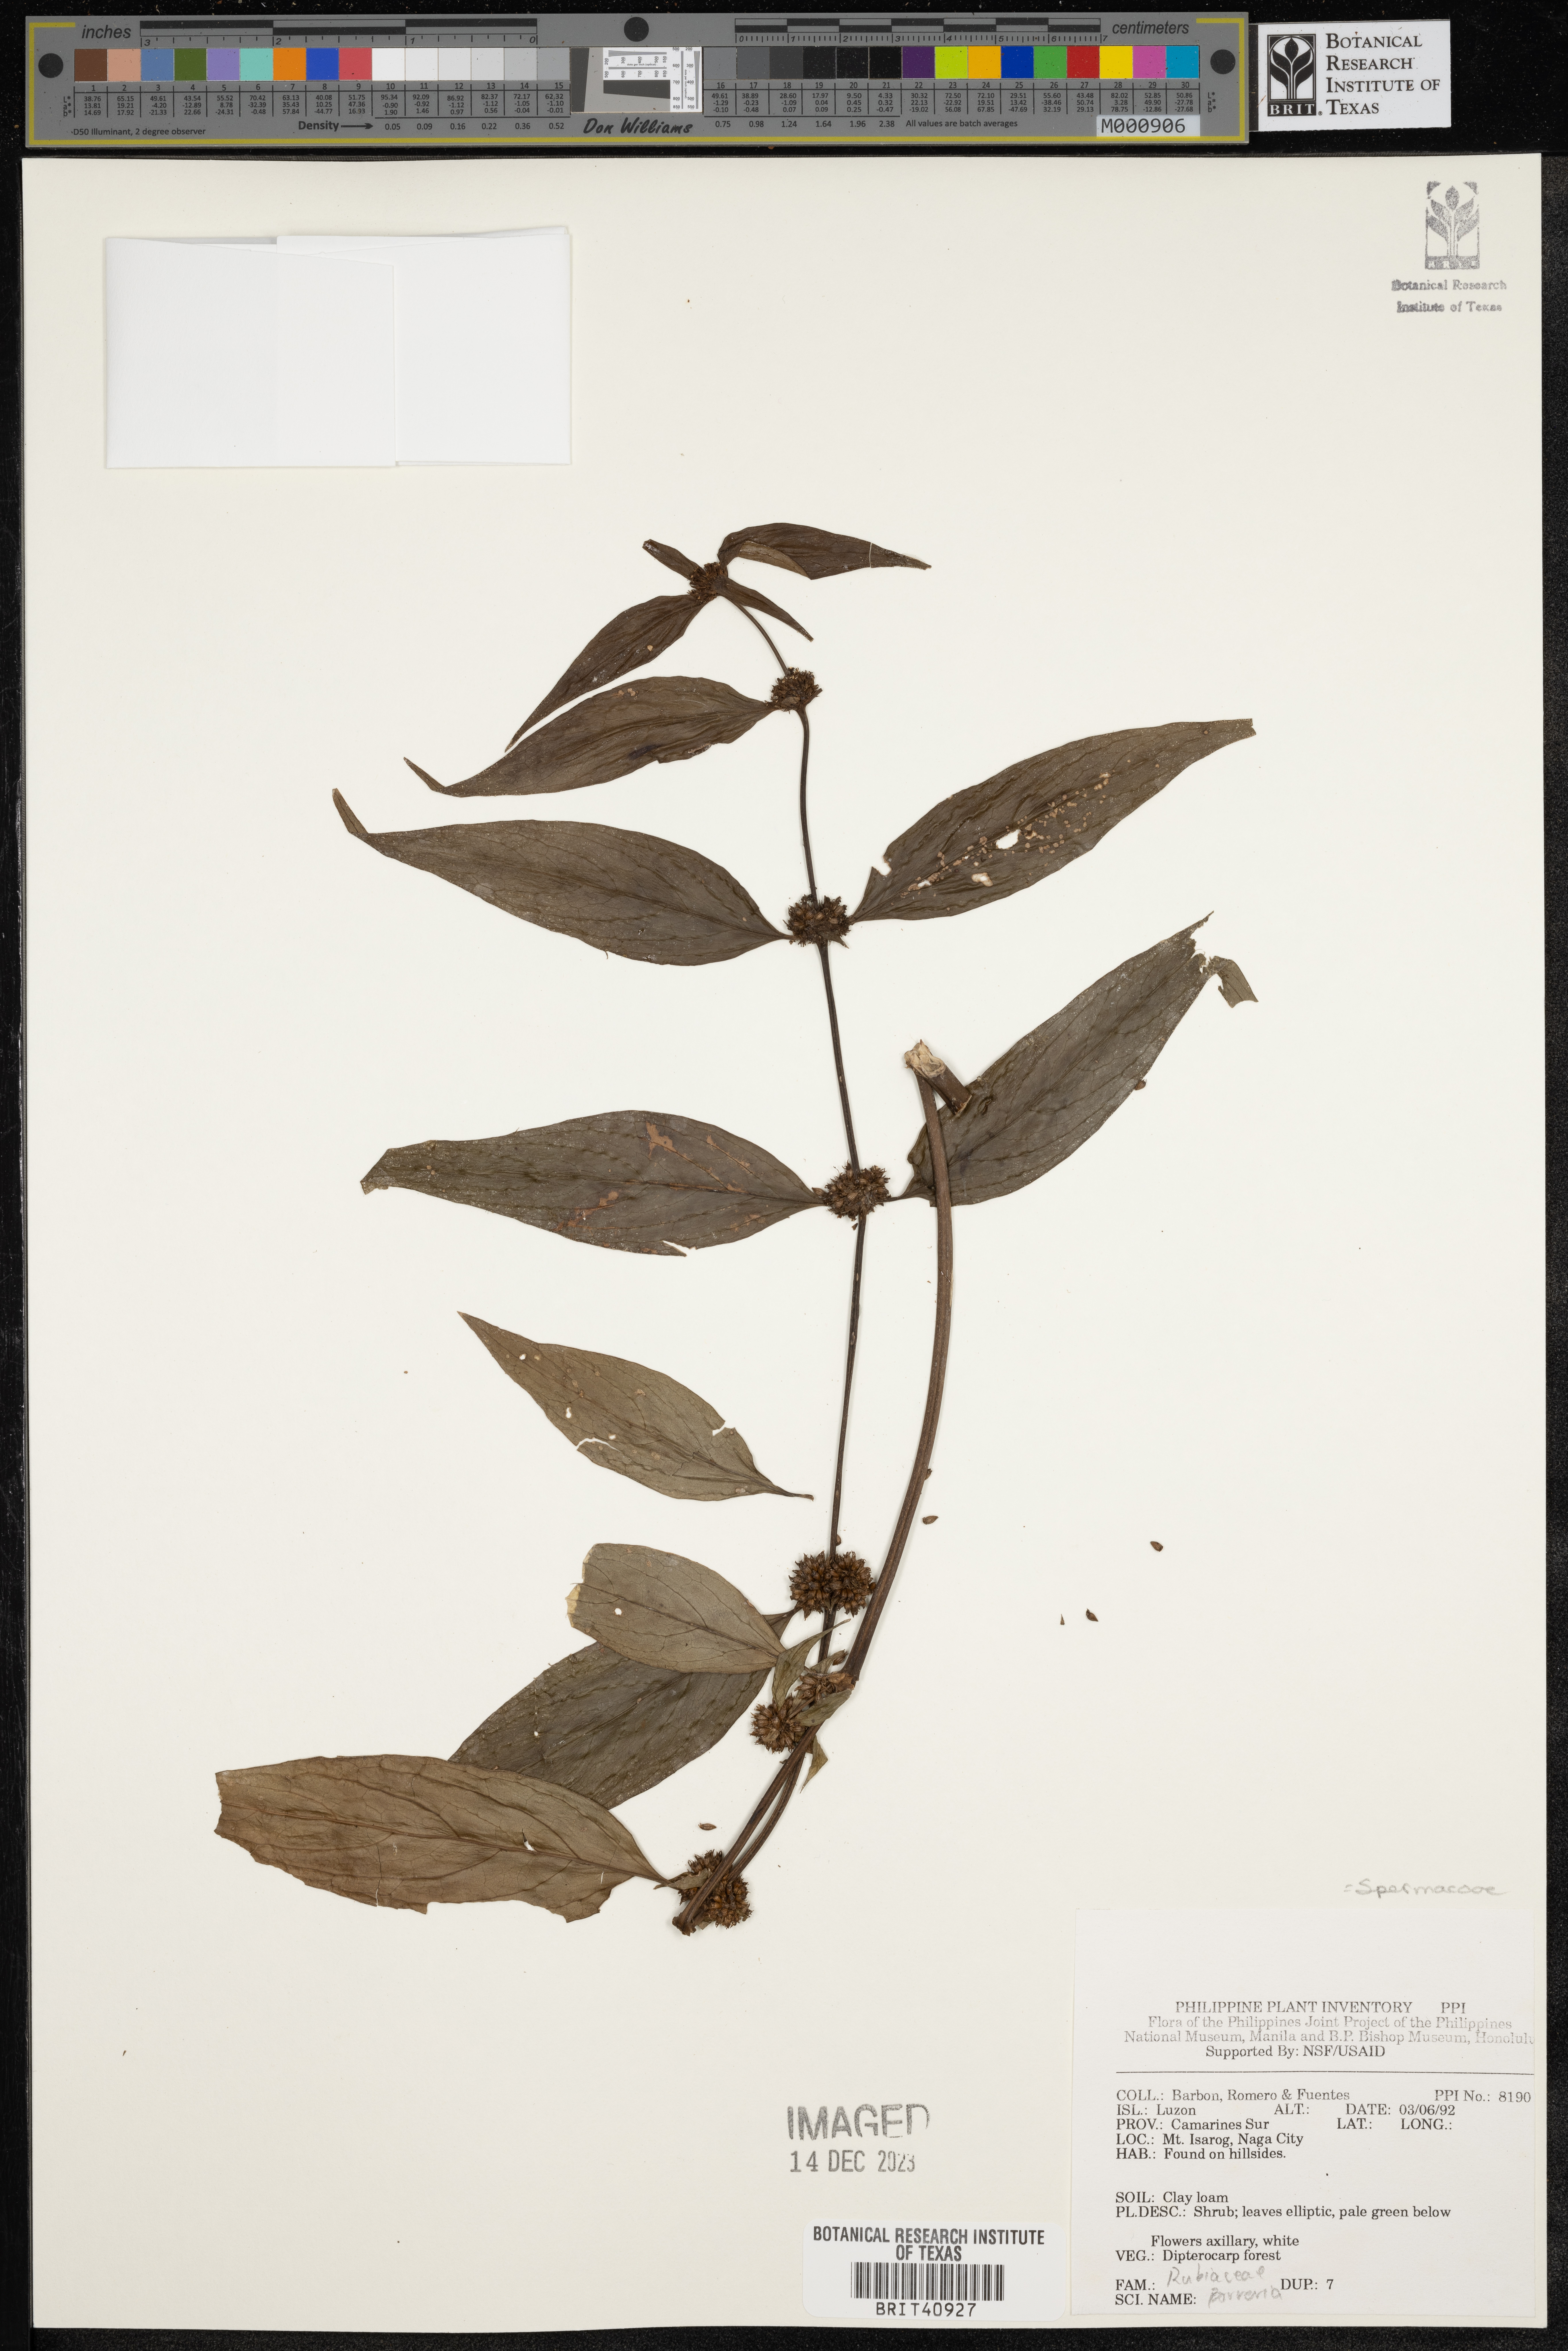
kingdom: Plantae
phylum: Tracheophyta
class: Magnoliopsida
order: Gentianales
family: Rubiaceae
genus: Spermacoce
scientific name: Spermacoce
